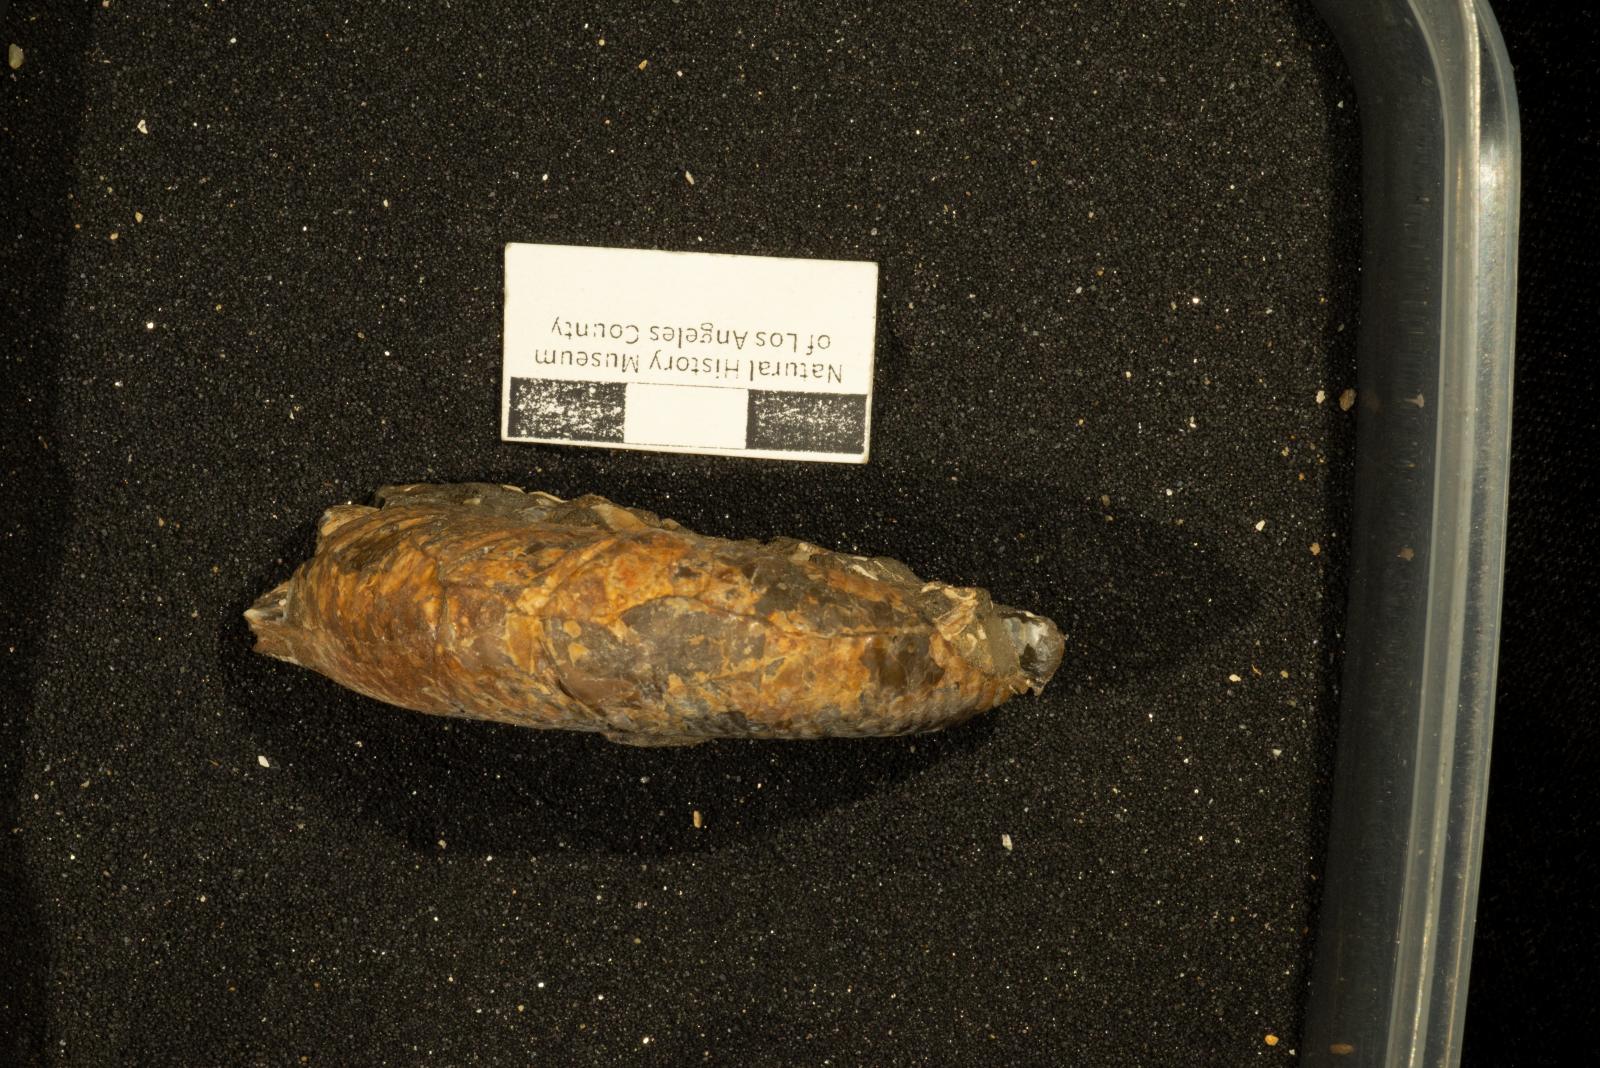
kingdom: Animalia
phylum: Mollusca
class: Cephalopoda
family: Desmoceratidae
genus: Jimboiceras
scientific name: Jimboiceras Desmoceras planulatiforme
